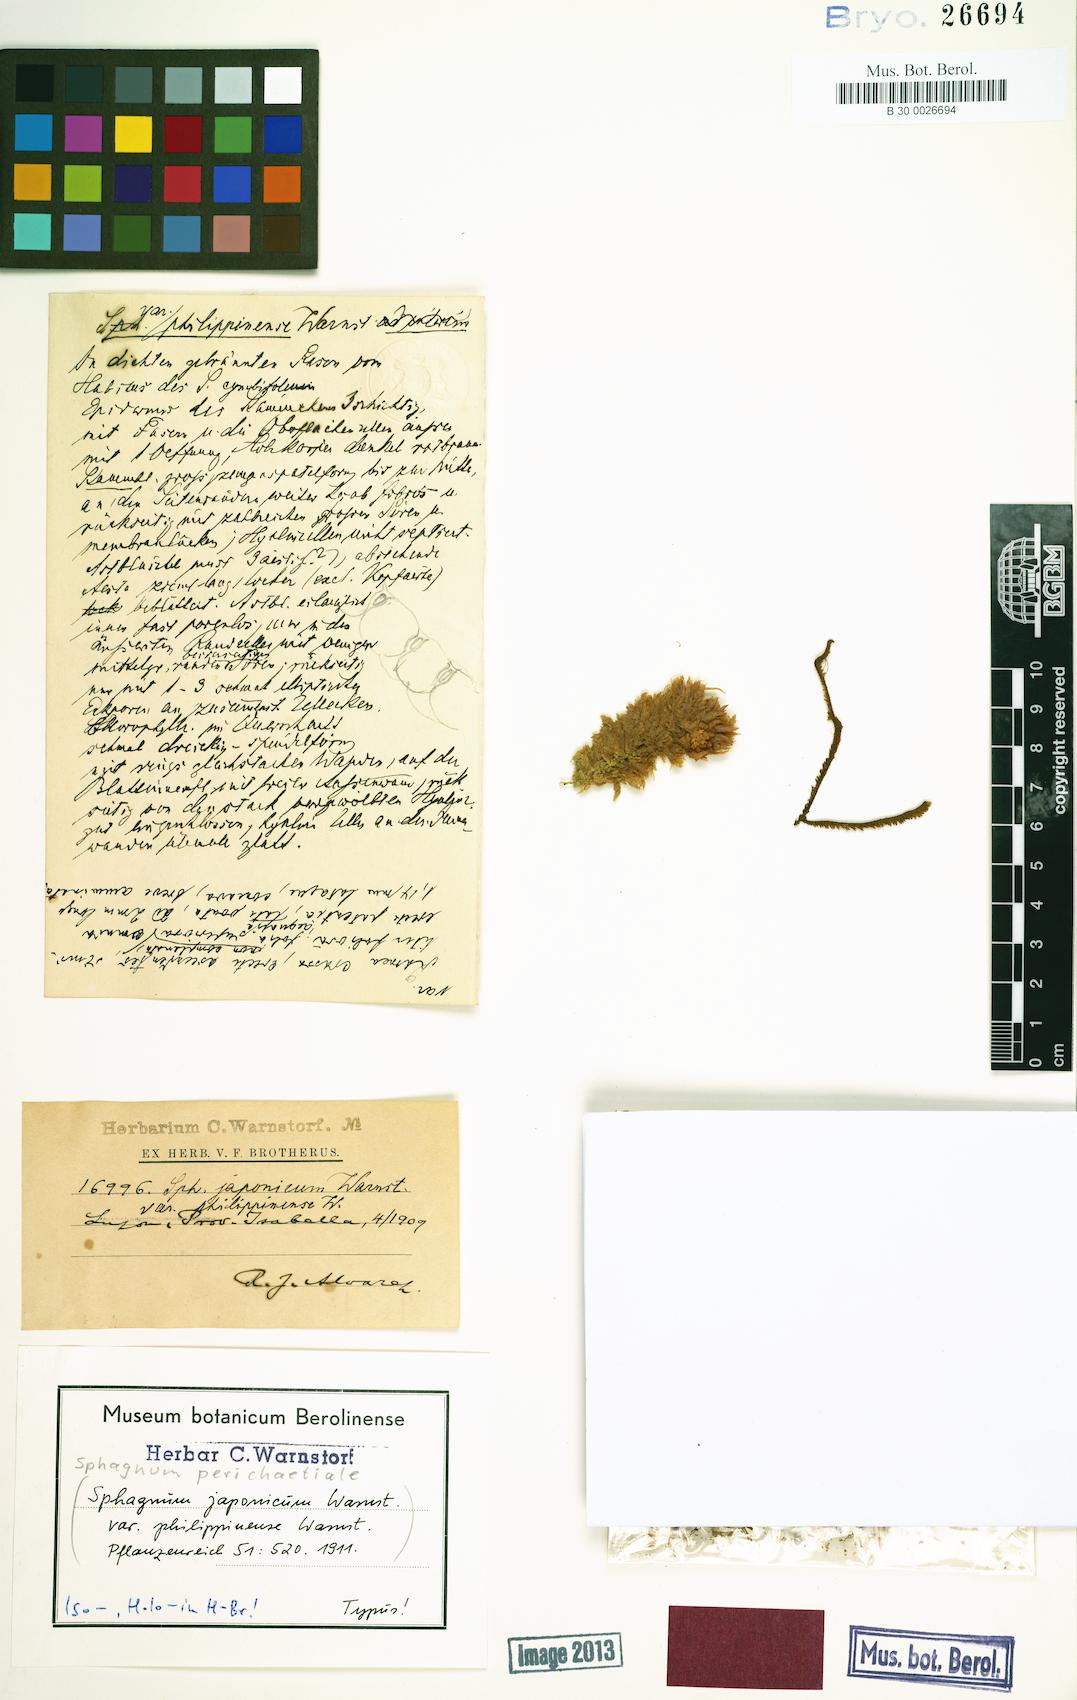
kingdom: Plantae
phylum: Bryophyta
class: Sphagnopsida
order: Sphagnales
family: Sphagnaceae
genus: Sphagnum
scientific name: Sphagnum palustre
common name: Blunt-leaved bog-moss
